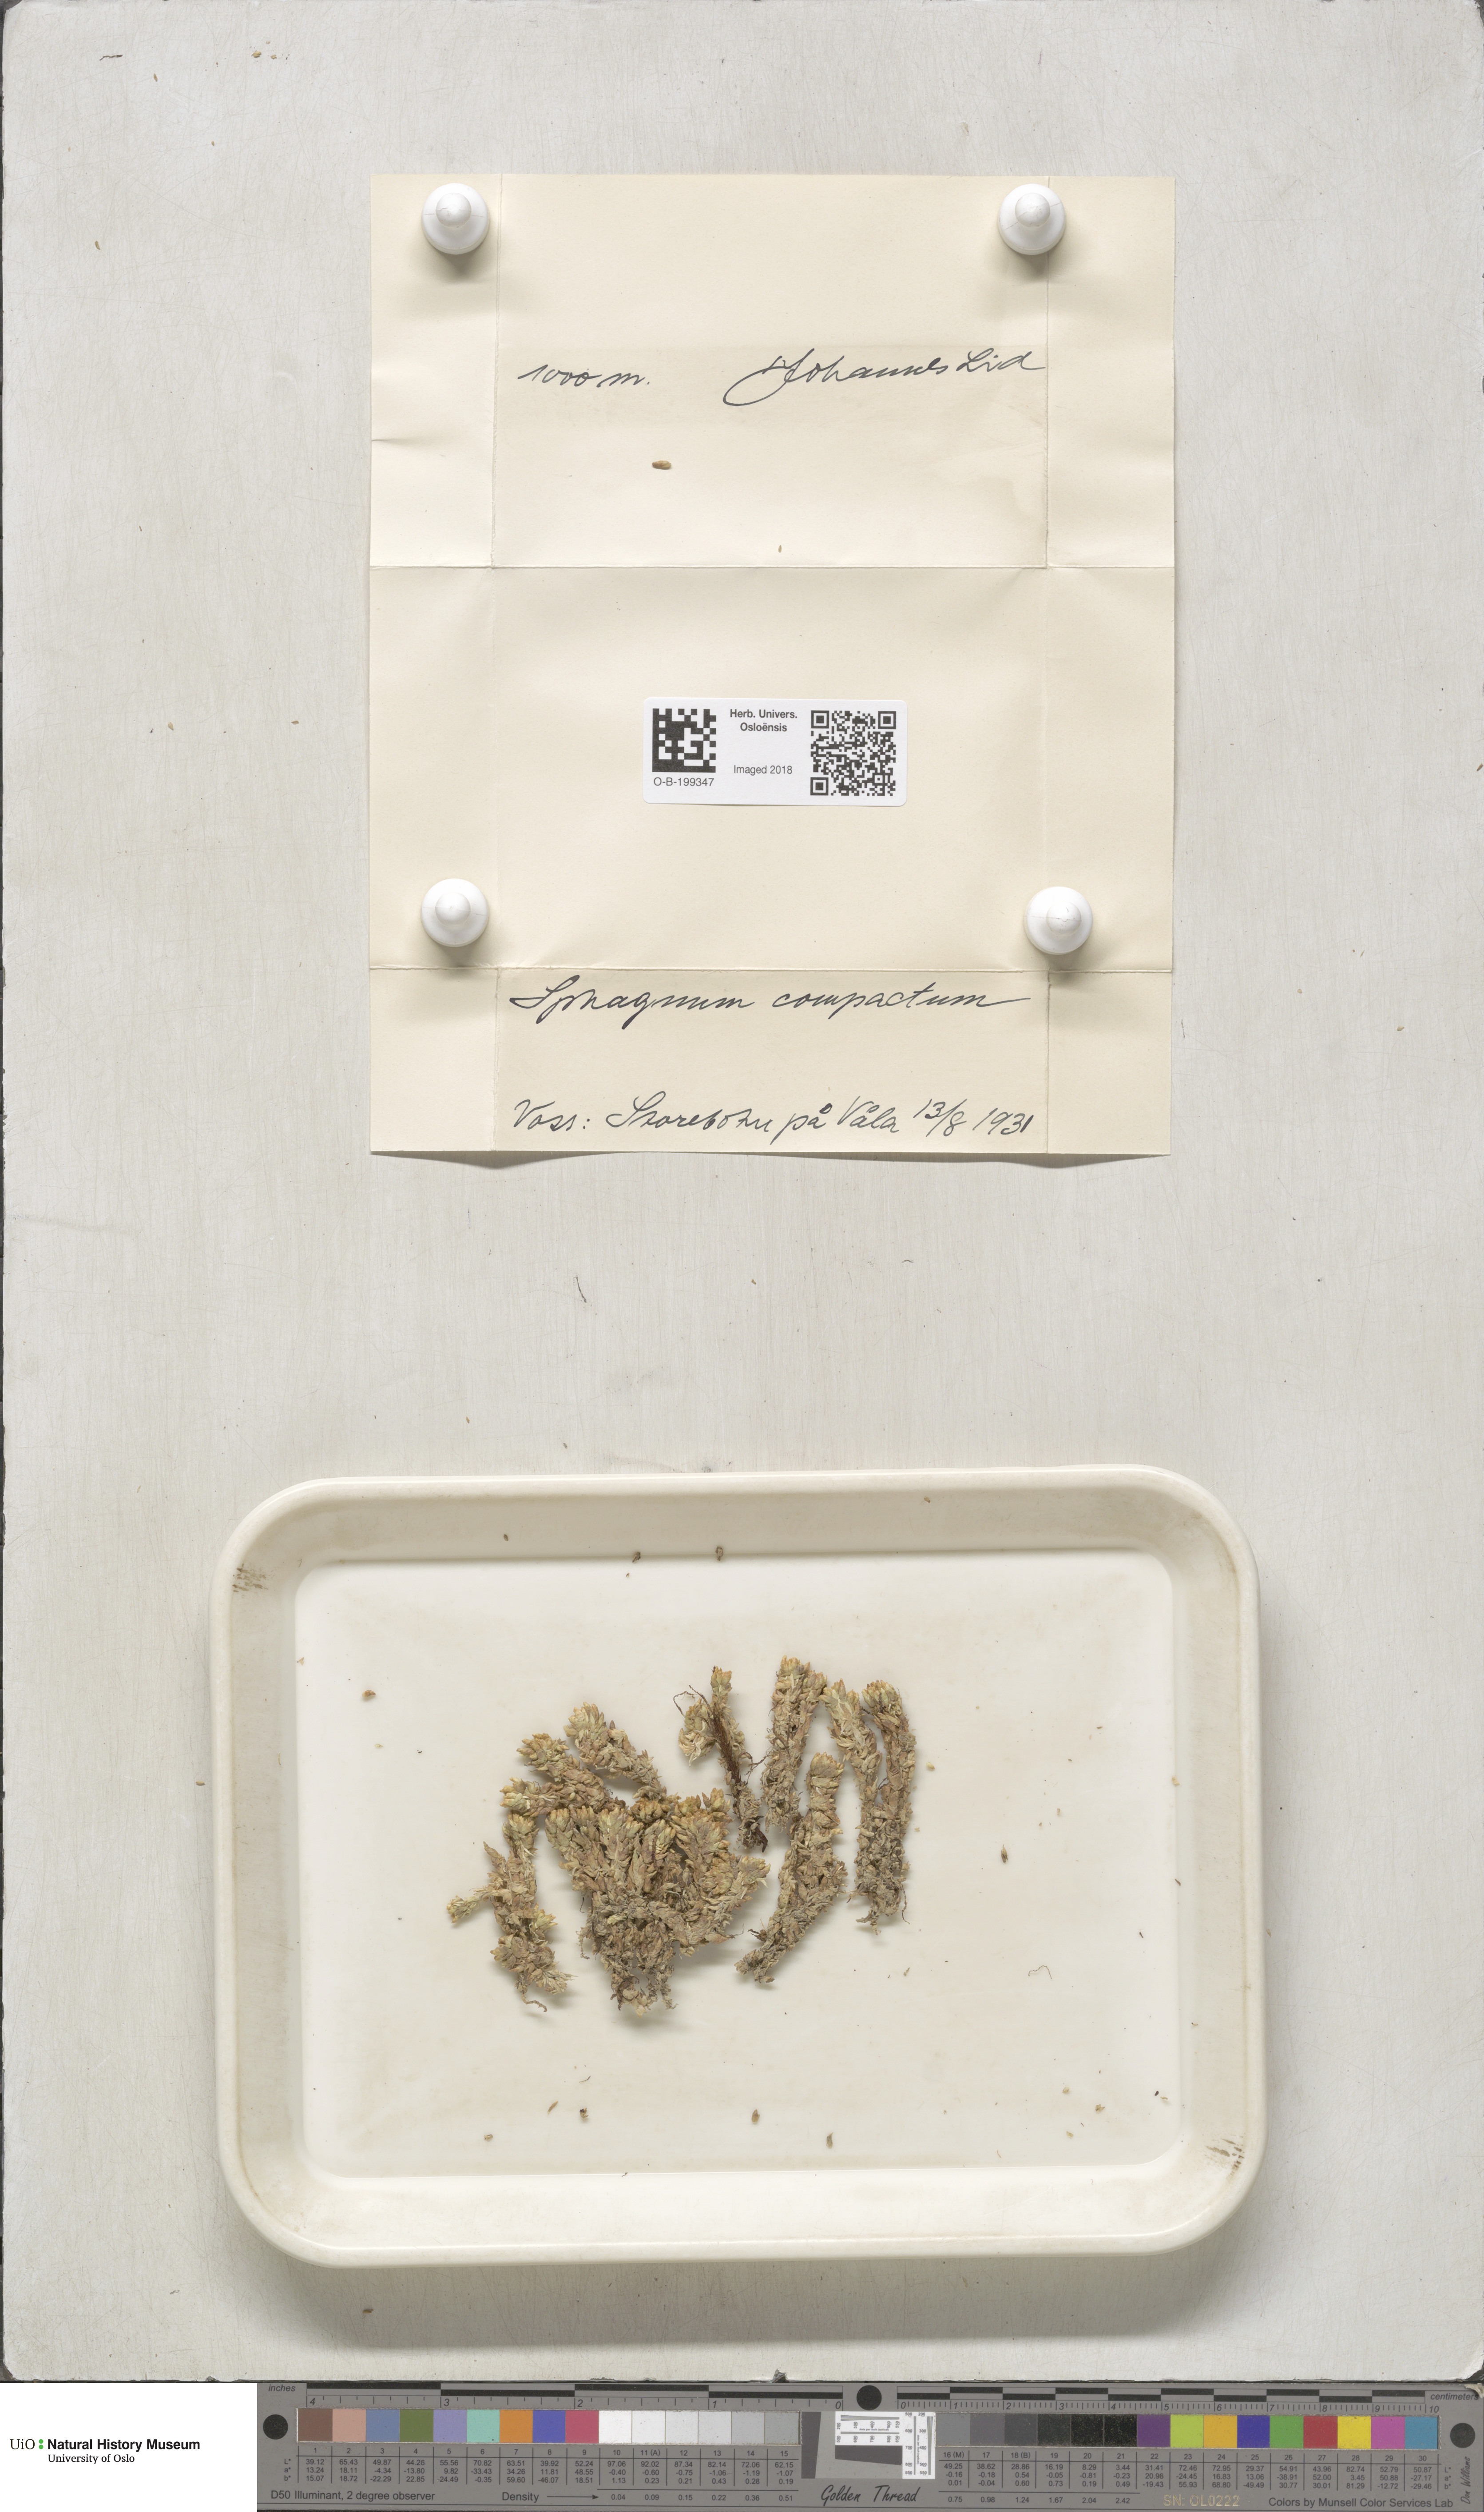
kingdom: Plantae
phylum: Bryophyta
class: Sphagnopsida
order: Sphagnales
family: Sphagnaceae
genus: Sphagnum
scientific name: Sphagnum compactum
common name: Compact peat moss
